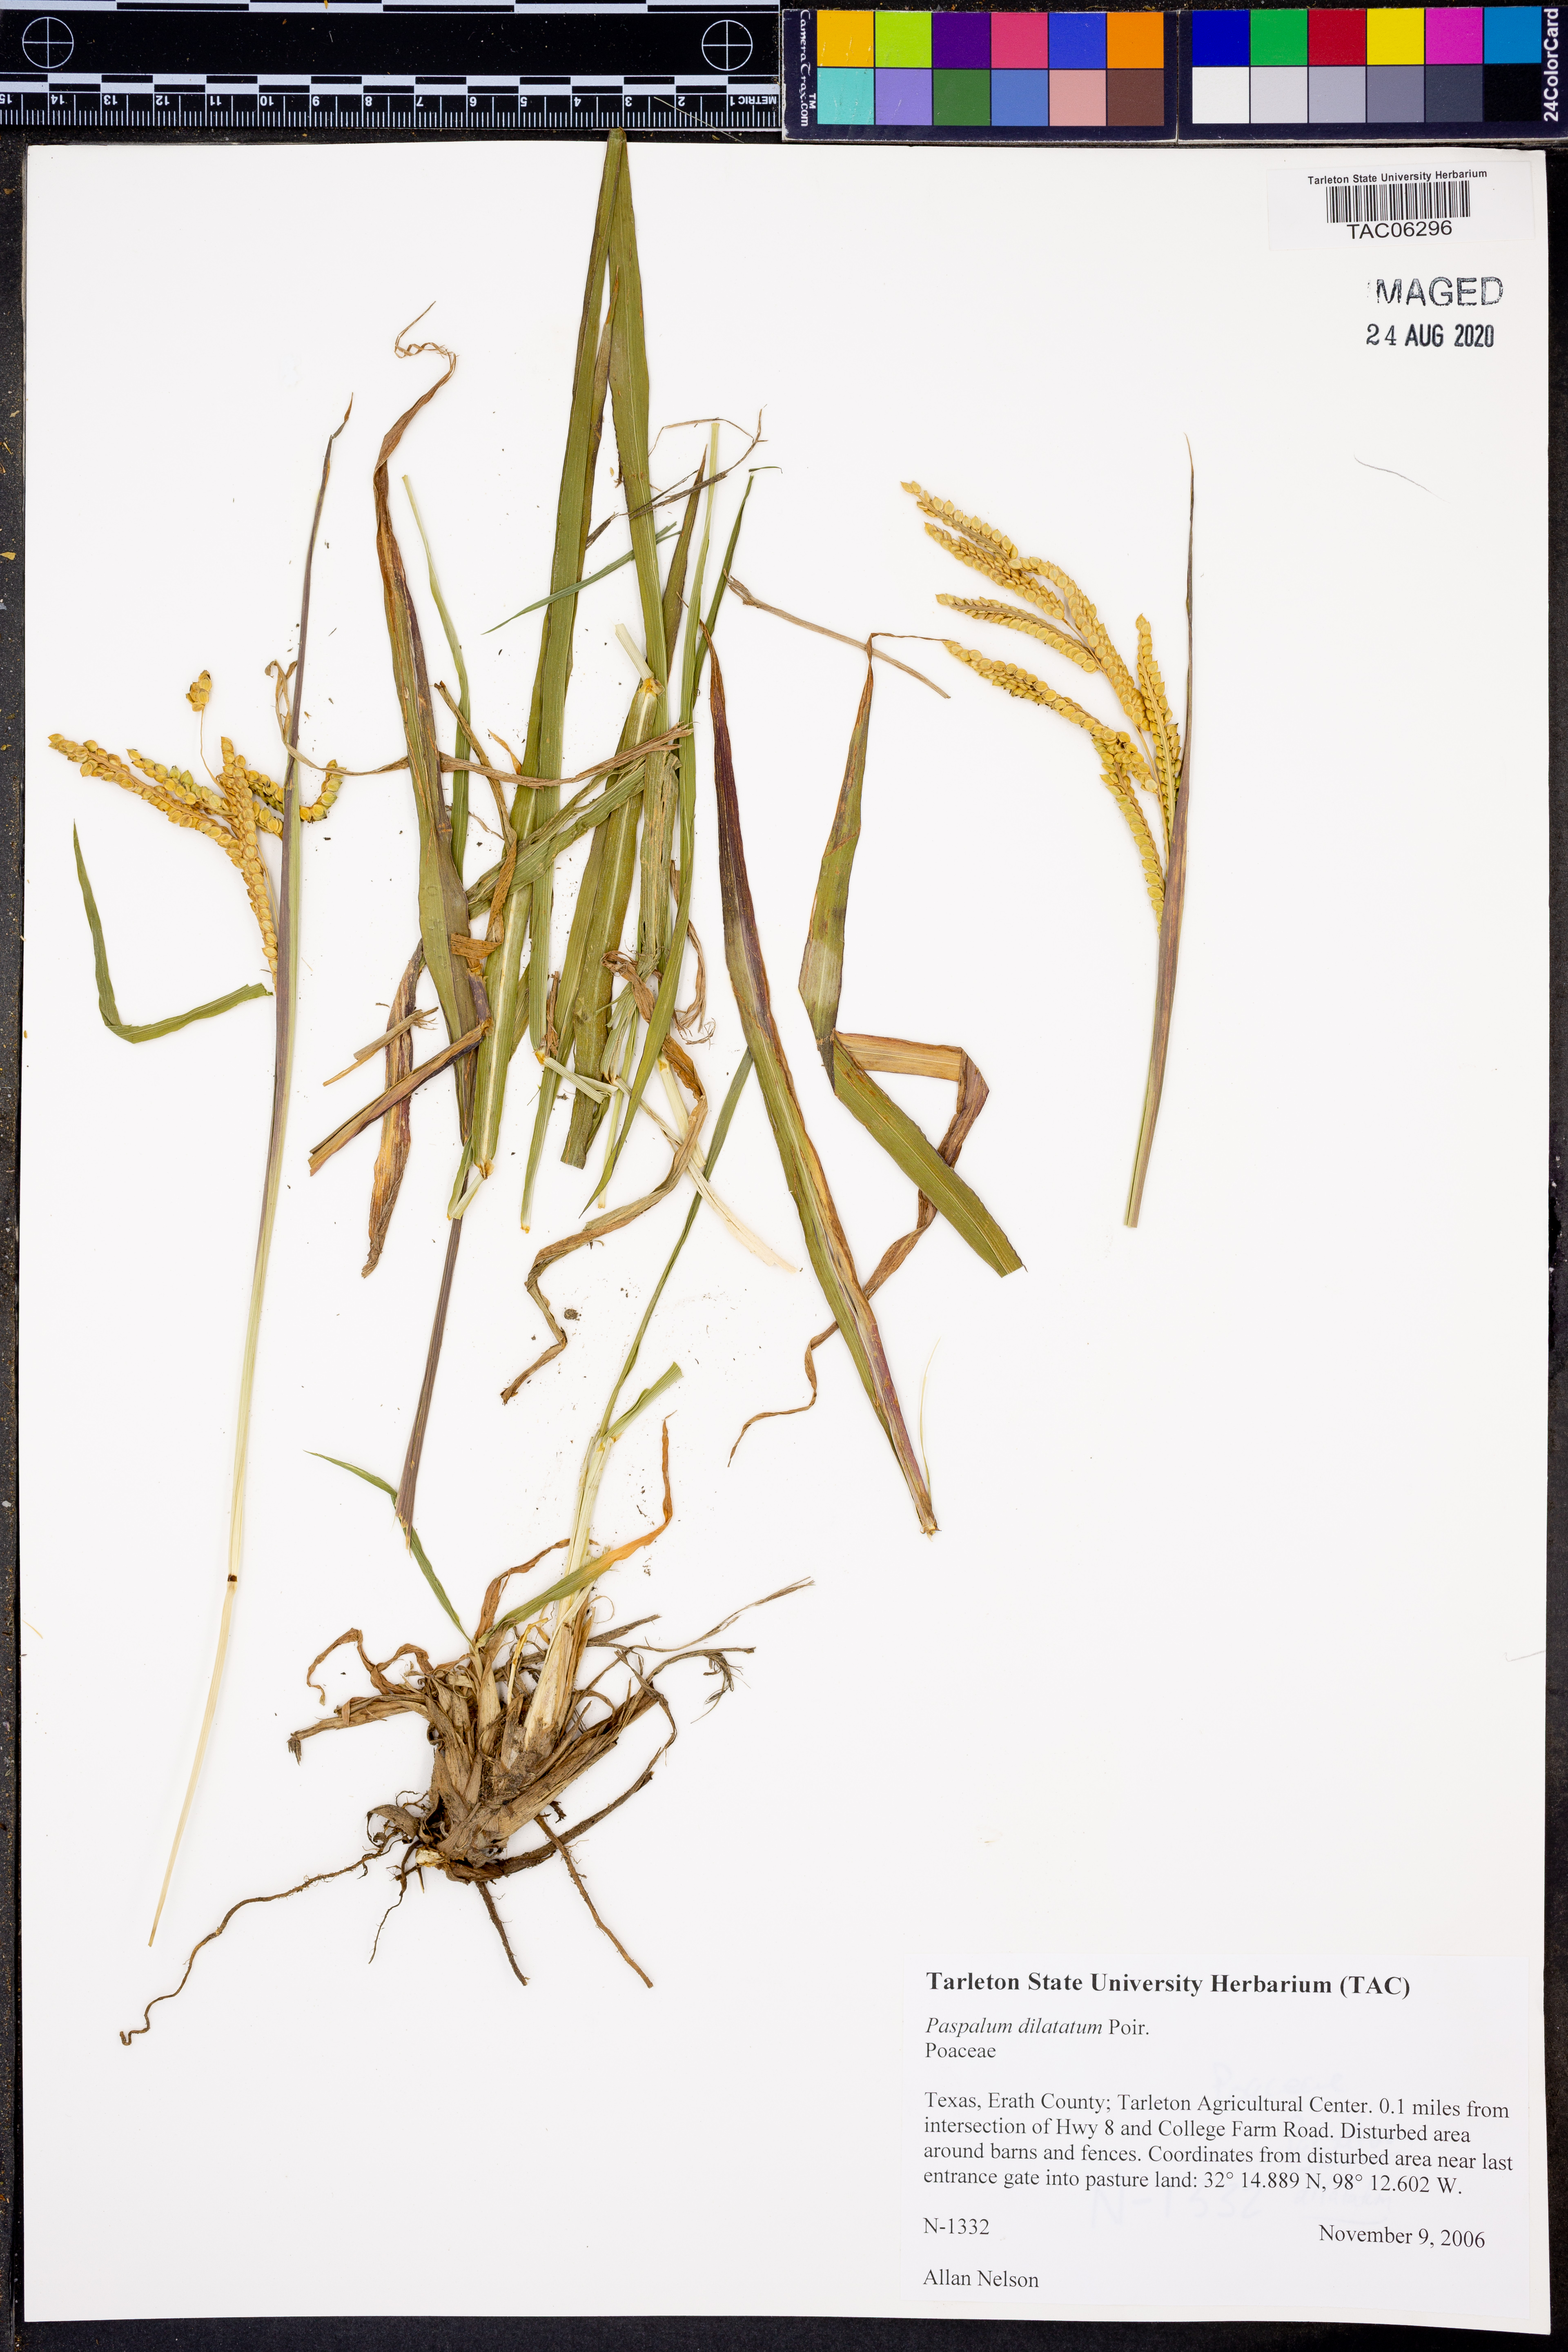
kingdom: Plantae
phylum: Tracheophyta
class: Liliopsida
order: Poales
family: Poaceae
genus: Paspalum
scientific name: Paspalum dilatatum
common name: Dallisgrass
